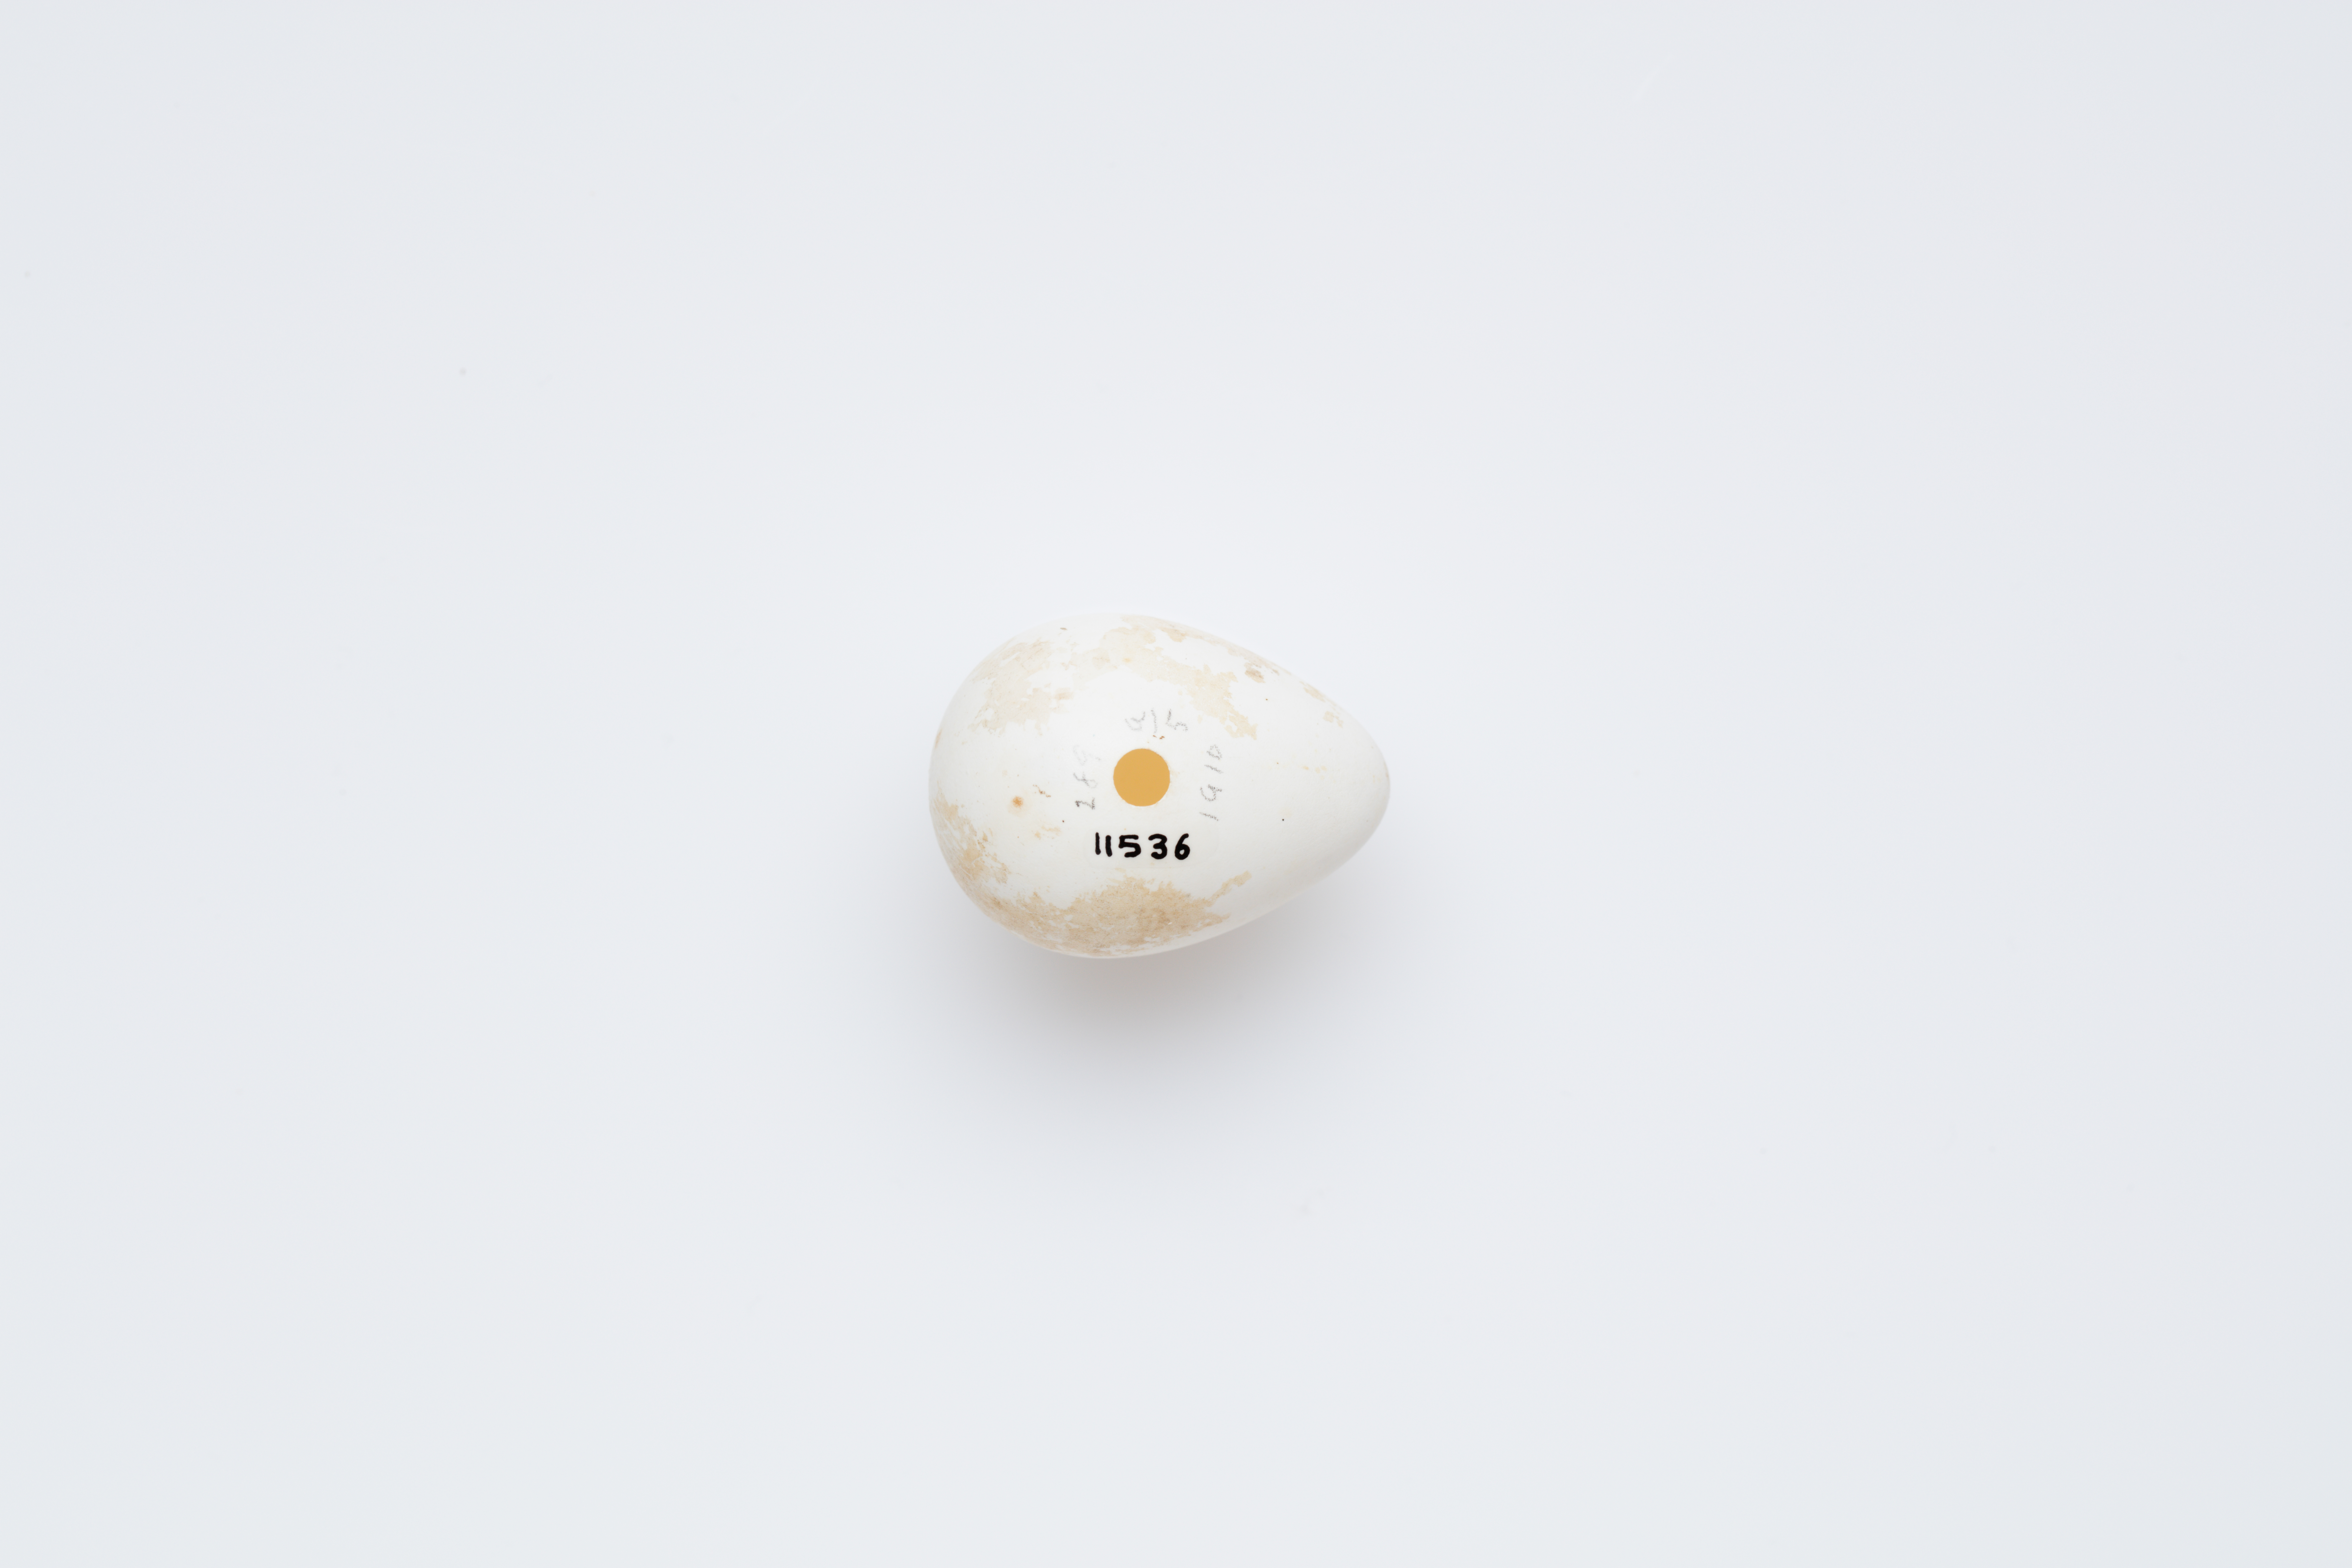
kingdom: Animalia
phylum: Chordata
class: Aves
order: Galliformes
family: Odontophoridae
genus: Colinus
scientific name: Colinus virginianus
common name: Northern bobwhite
